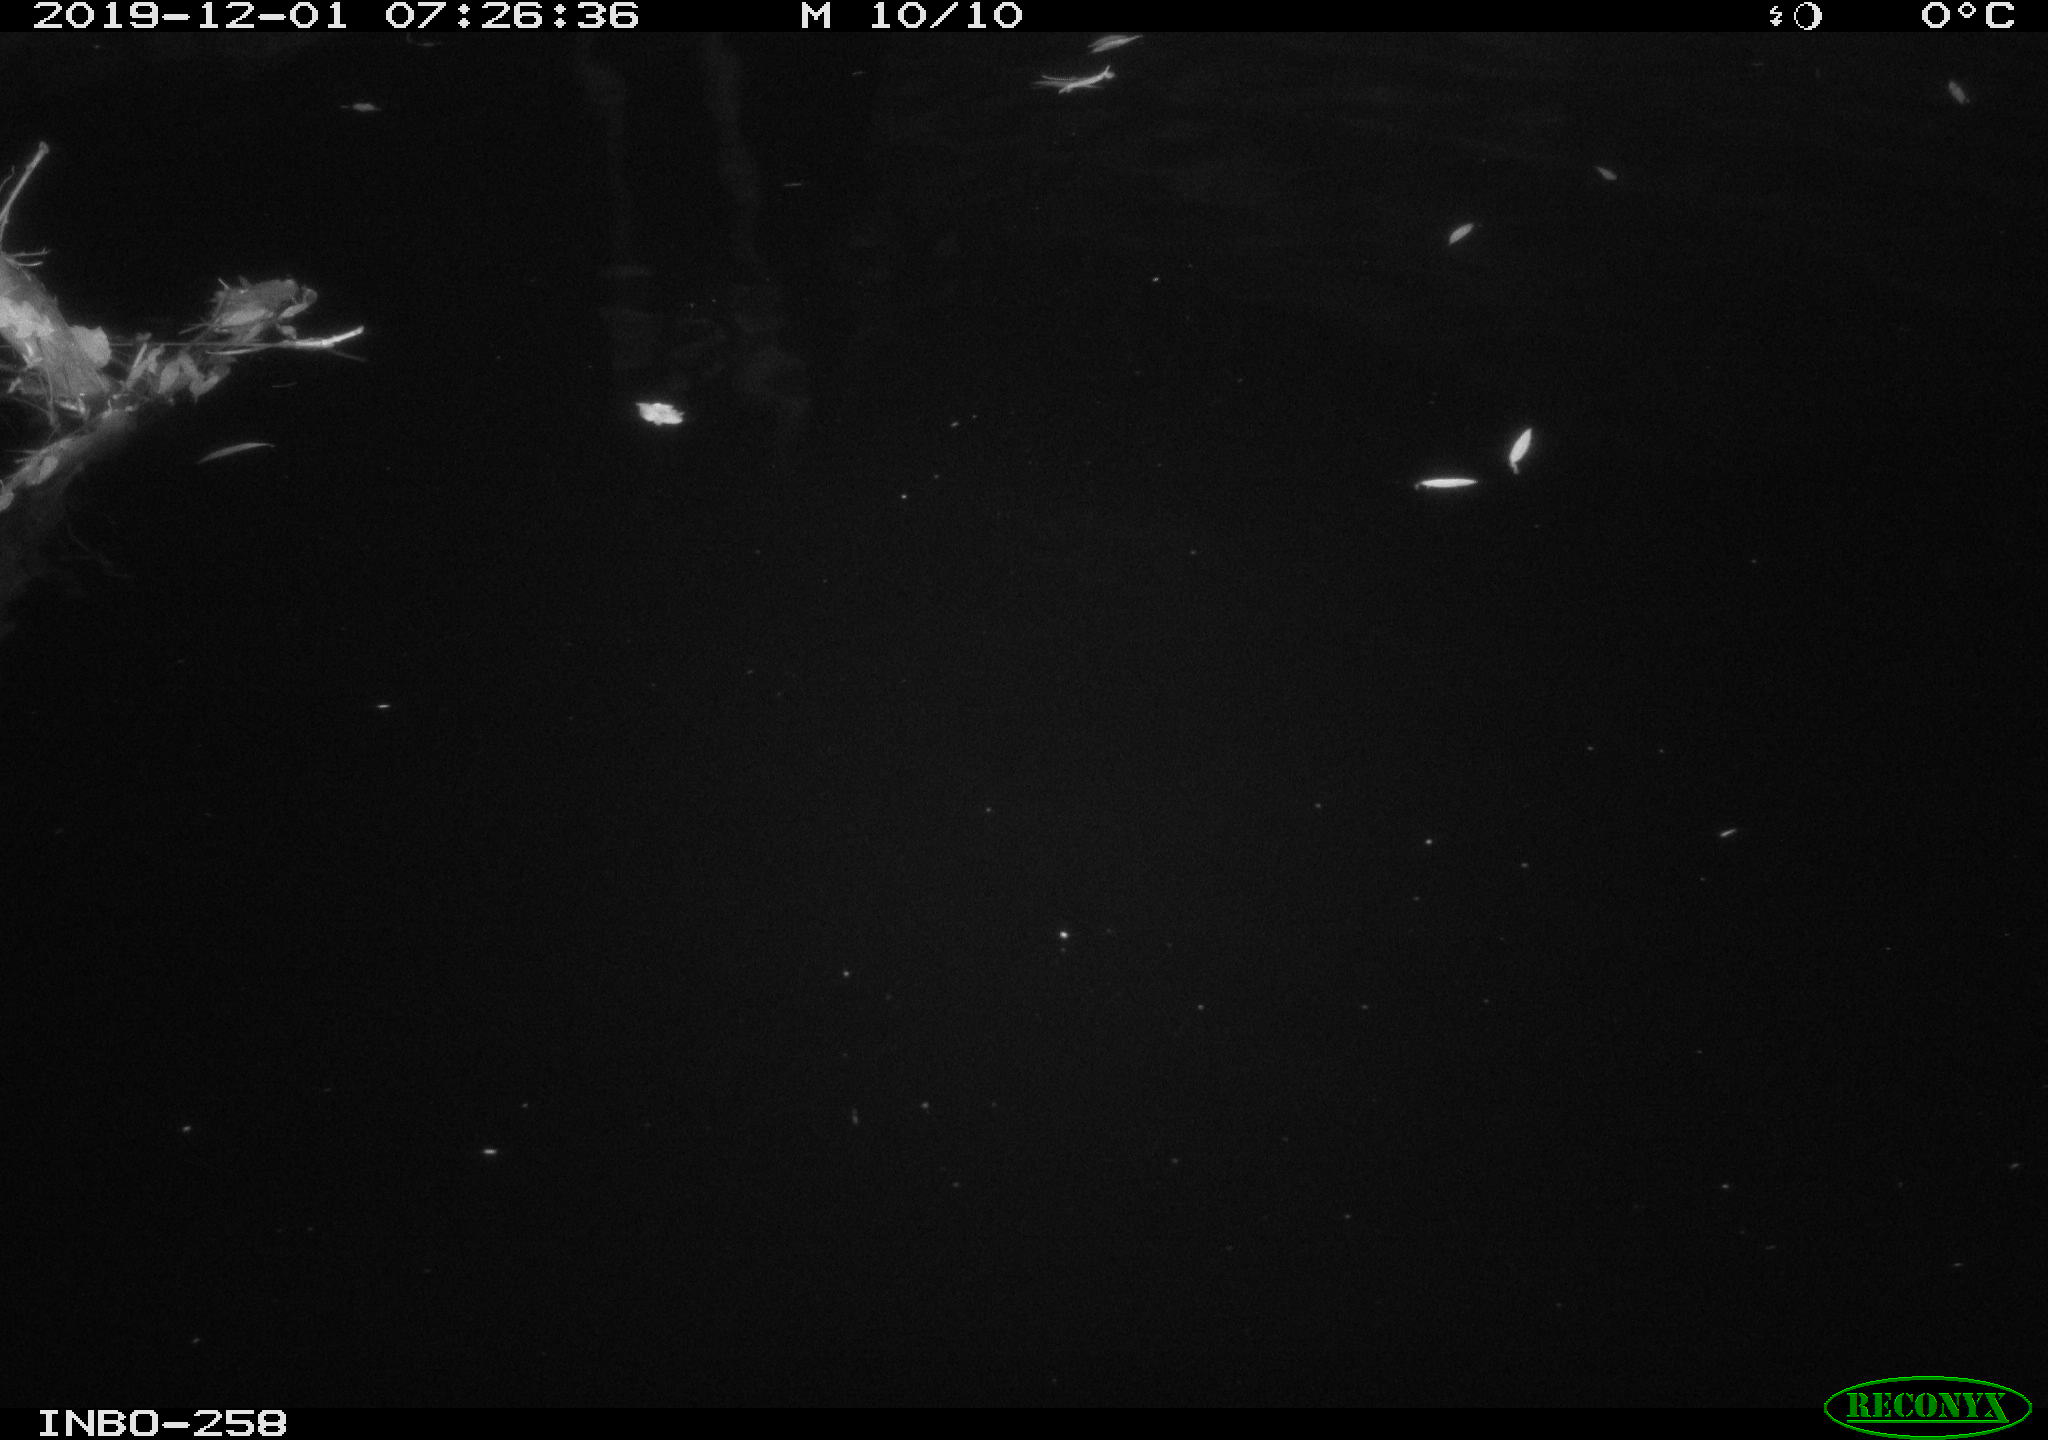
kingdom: Animalia
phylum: Chordata
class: Aves
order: Anseriformes
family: Anatidae
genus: Anas
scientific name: Anas platyrhynchos
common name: Mallard
